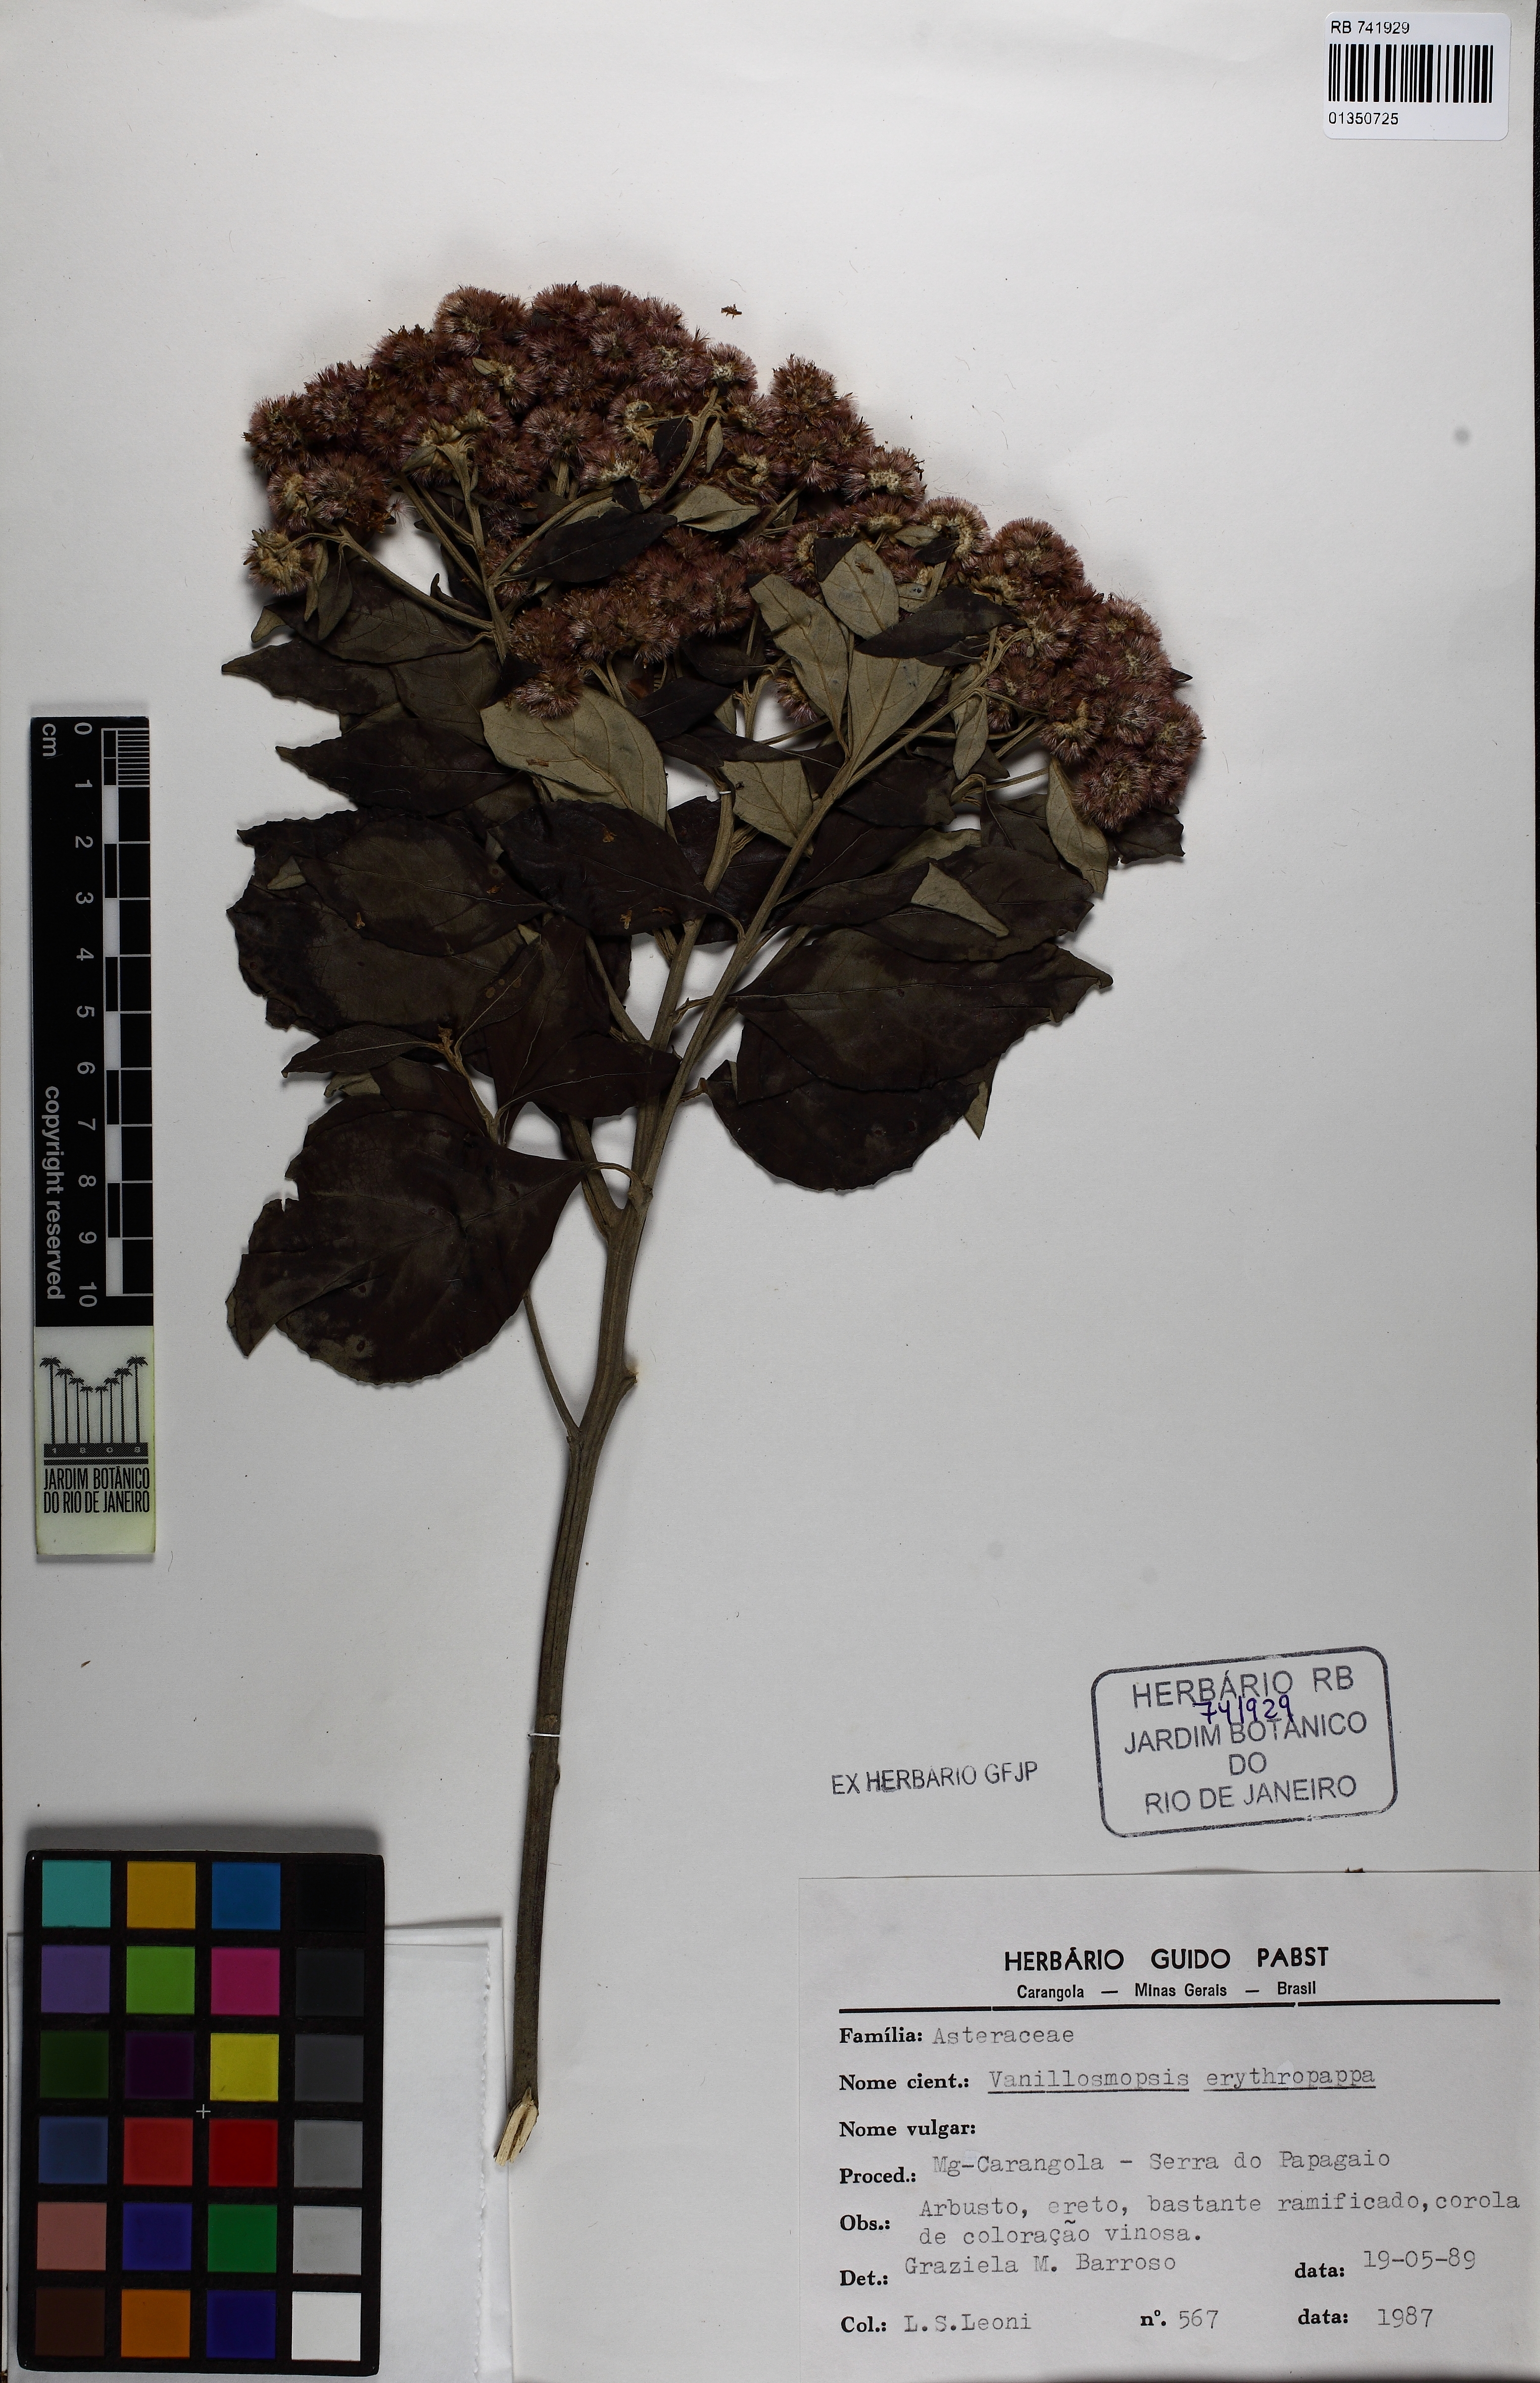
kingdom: Plantae
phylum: Tracheophyta
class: Magnoliopsida
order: Asterales
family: Asteraceae
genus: Eremanthus
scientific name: Eremanthus erythropappus
